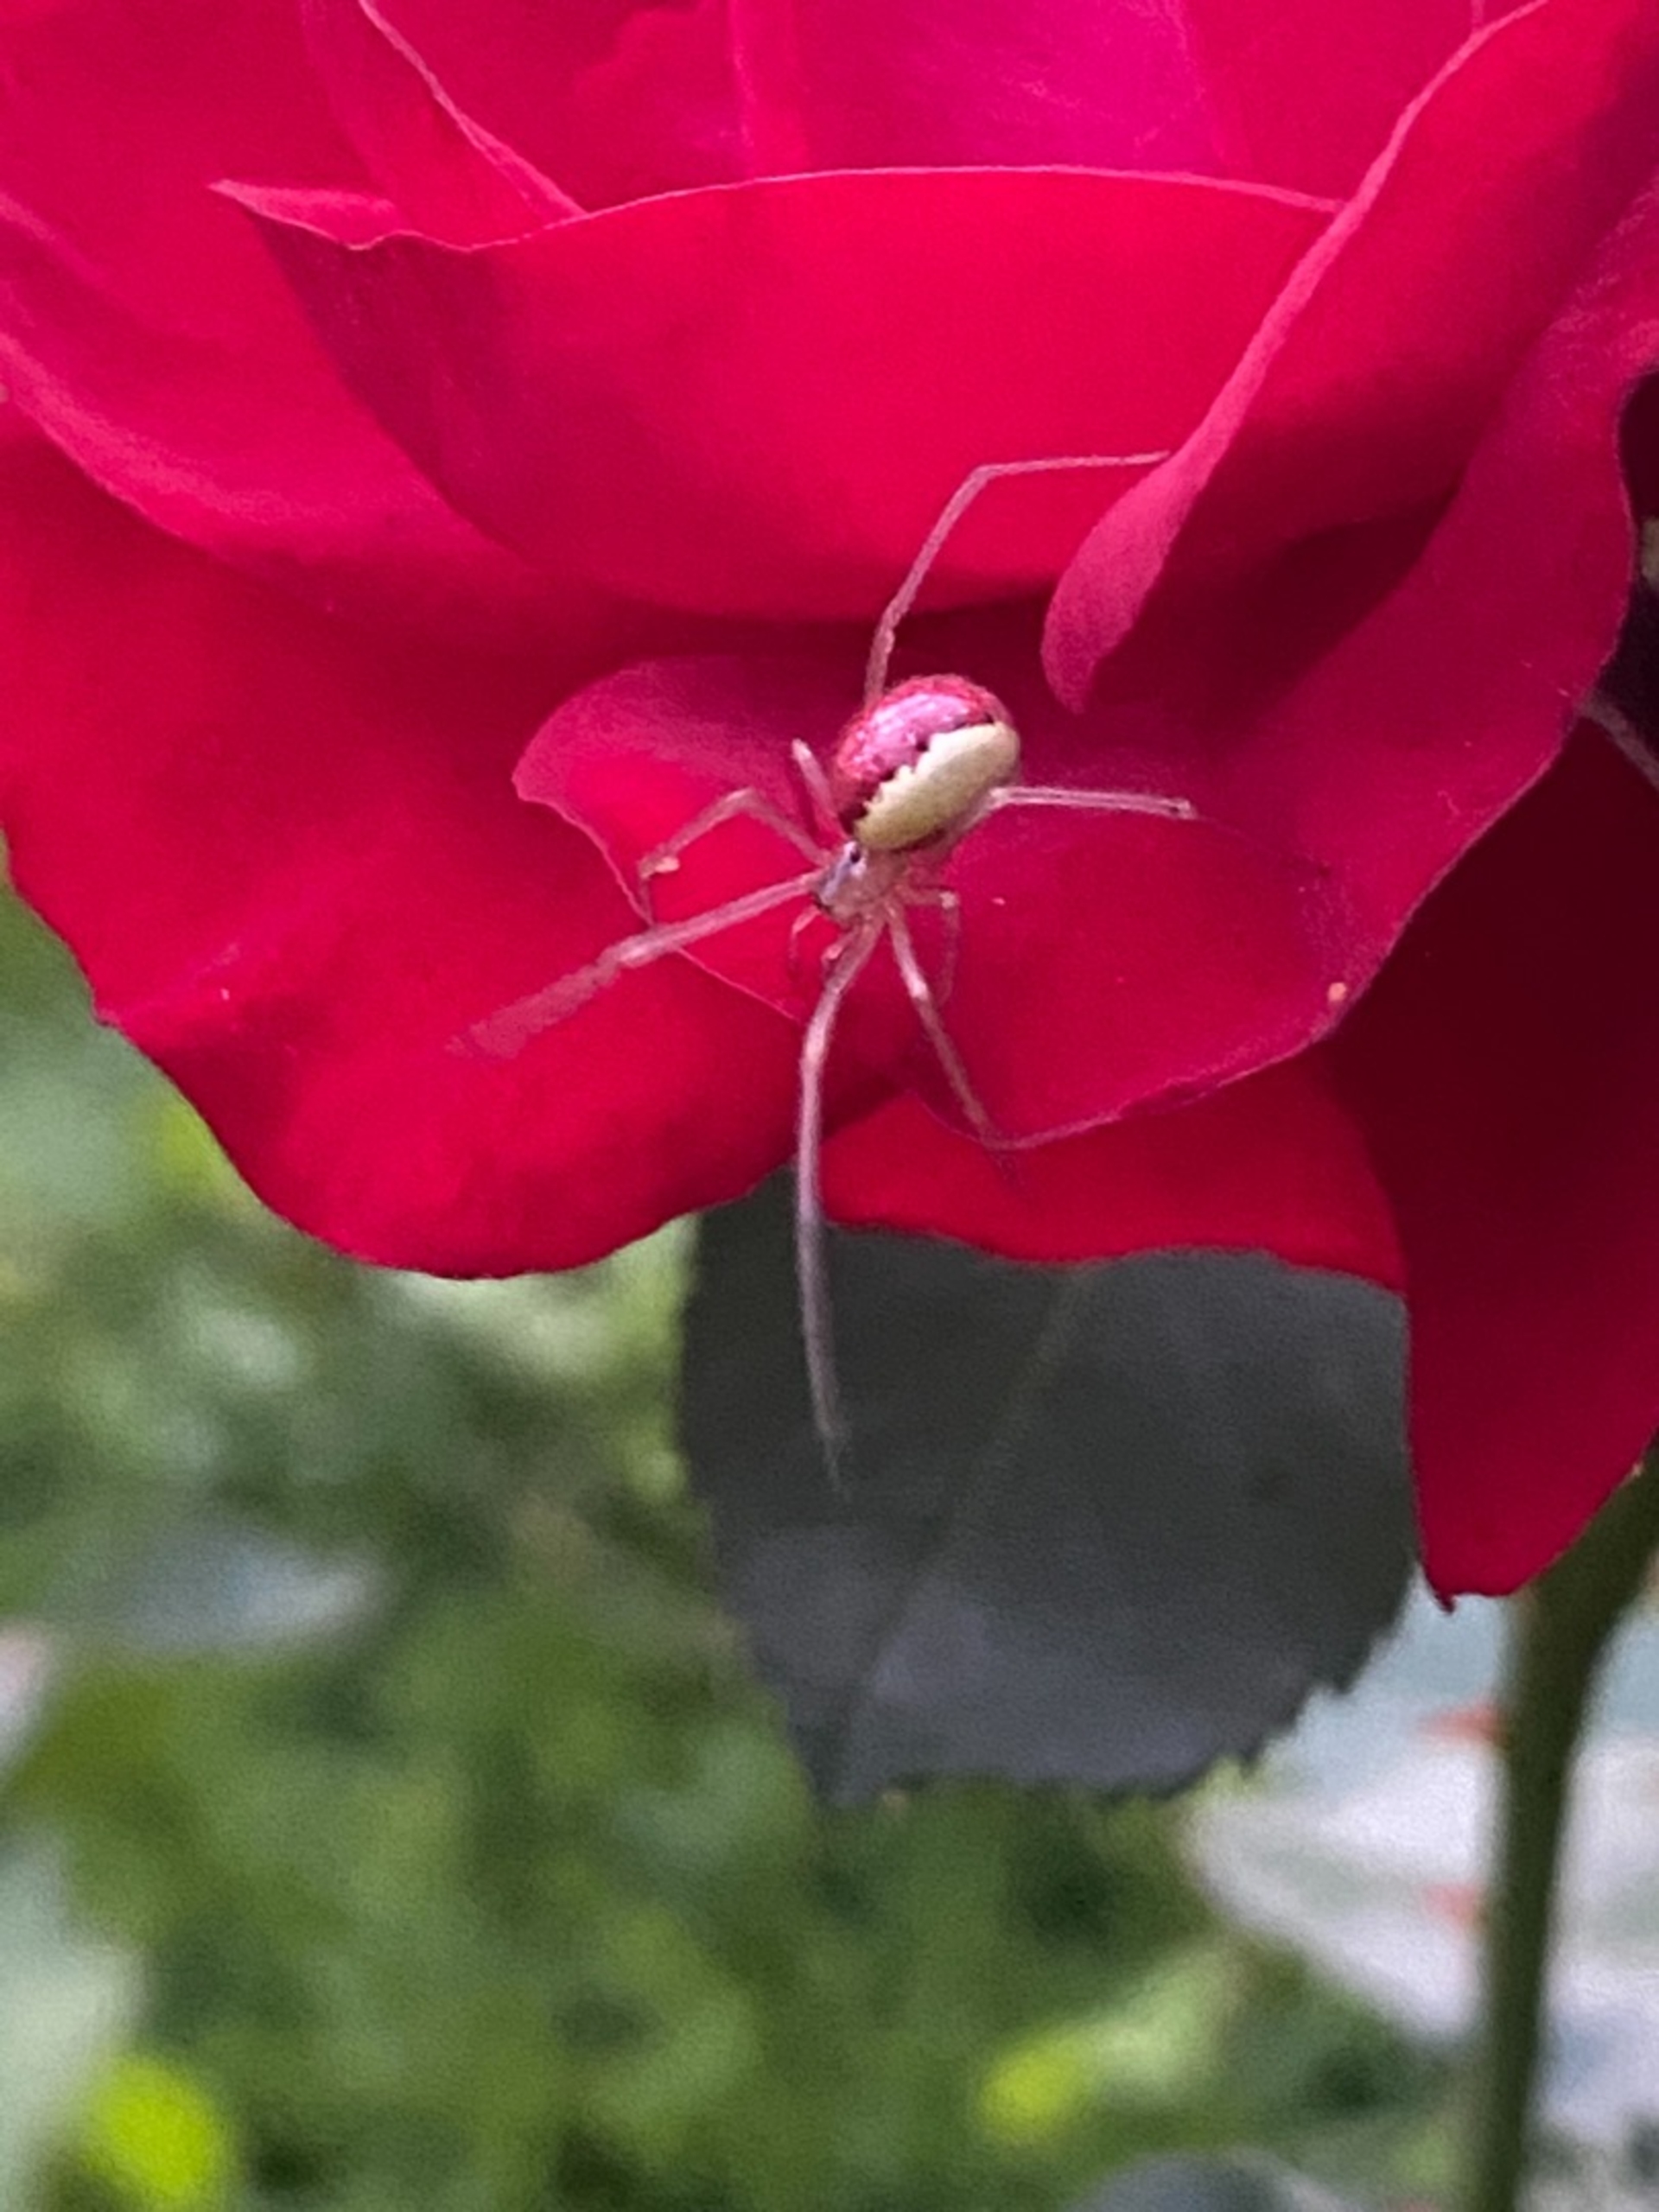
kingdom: Animalia
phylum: Arthropoda
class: Arachnida
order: Araneae
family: Theridiidae
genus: Enoplognatha
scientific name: Enoplognatha ovata
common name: Perleedderkop
